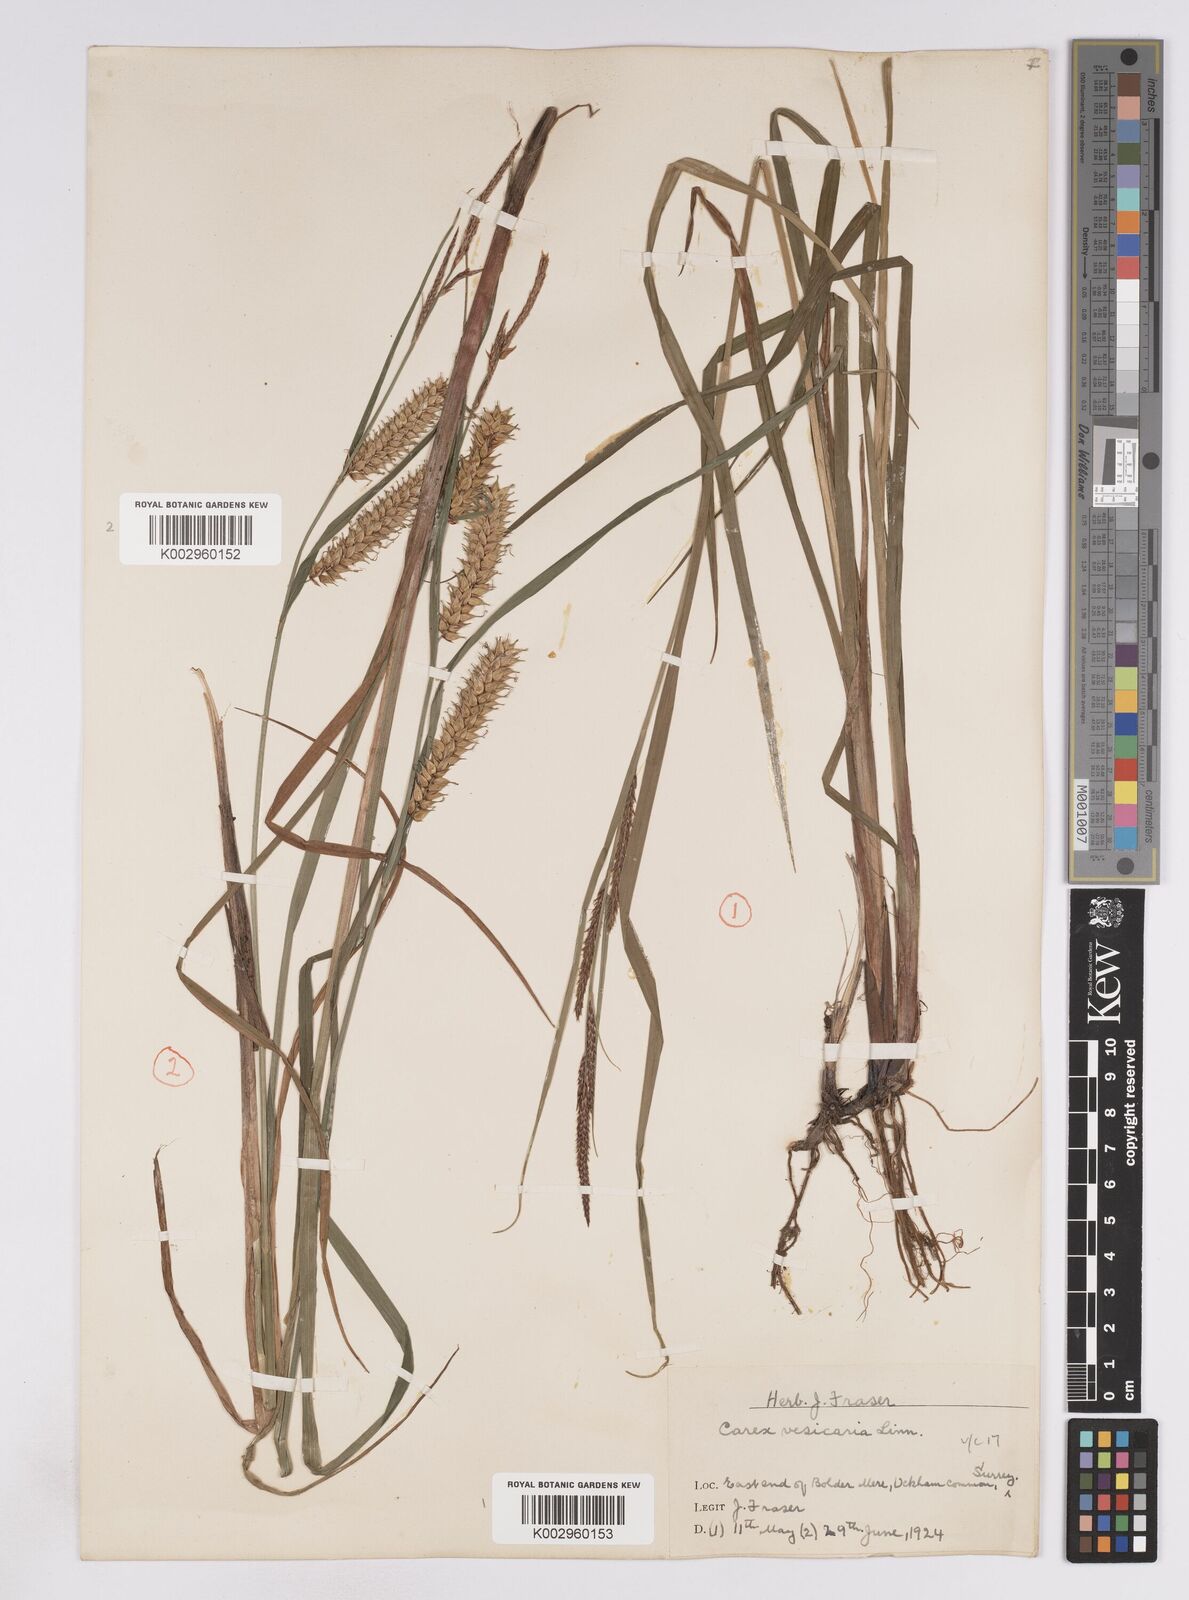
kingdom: Plantae
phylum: Tracheophyta
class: Liliopsida
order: Poales
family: Cyperaceae
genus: Carex
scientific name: Carex vesicaria
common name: Bladder-sedge
